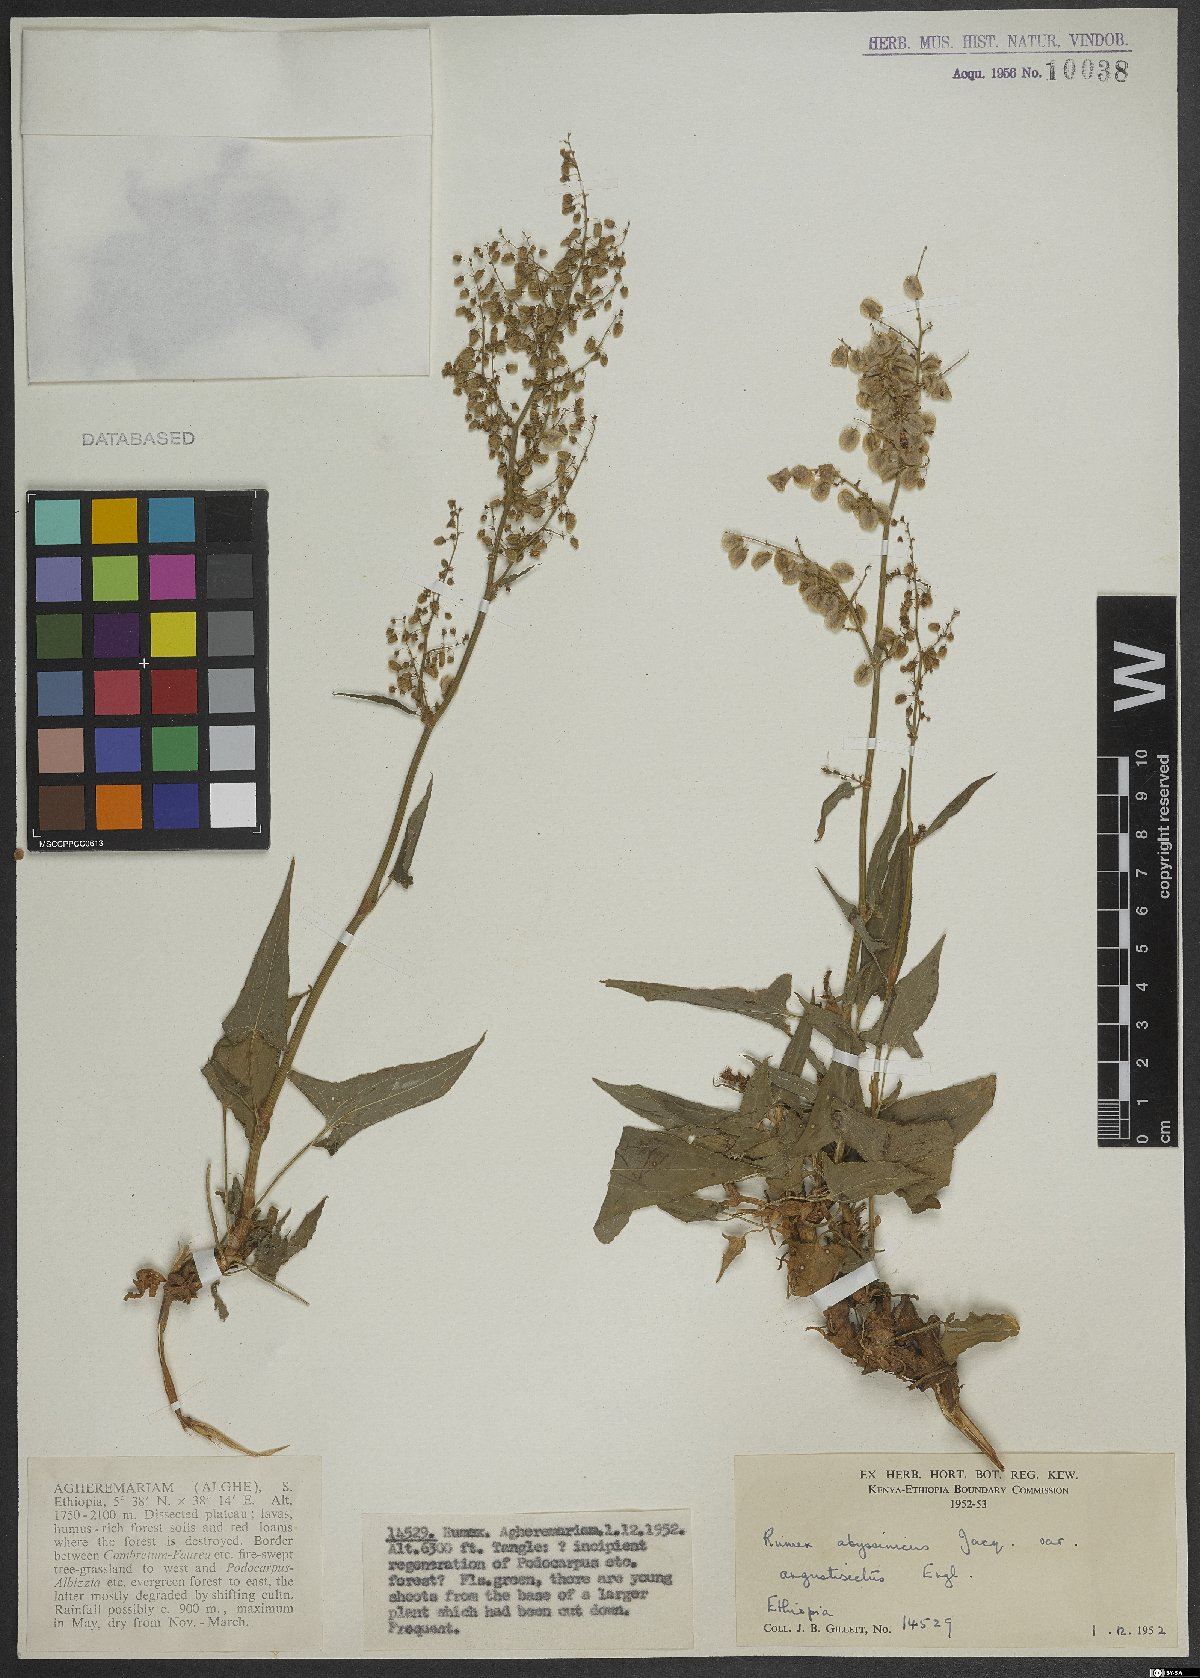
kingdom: Plantae
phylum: Tracheophyta
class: Magnoliopsida
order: Caryophyllales
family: Polygonaceae
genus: Rumex
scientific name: Rumex abyssinicus
